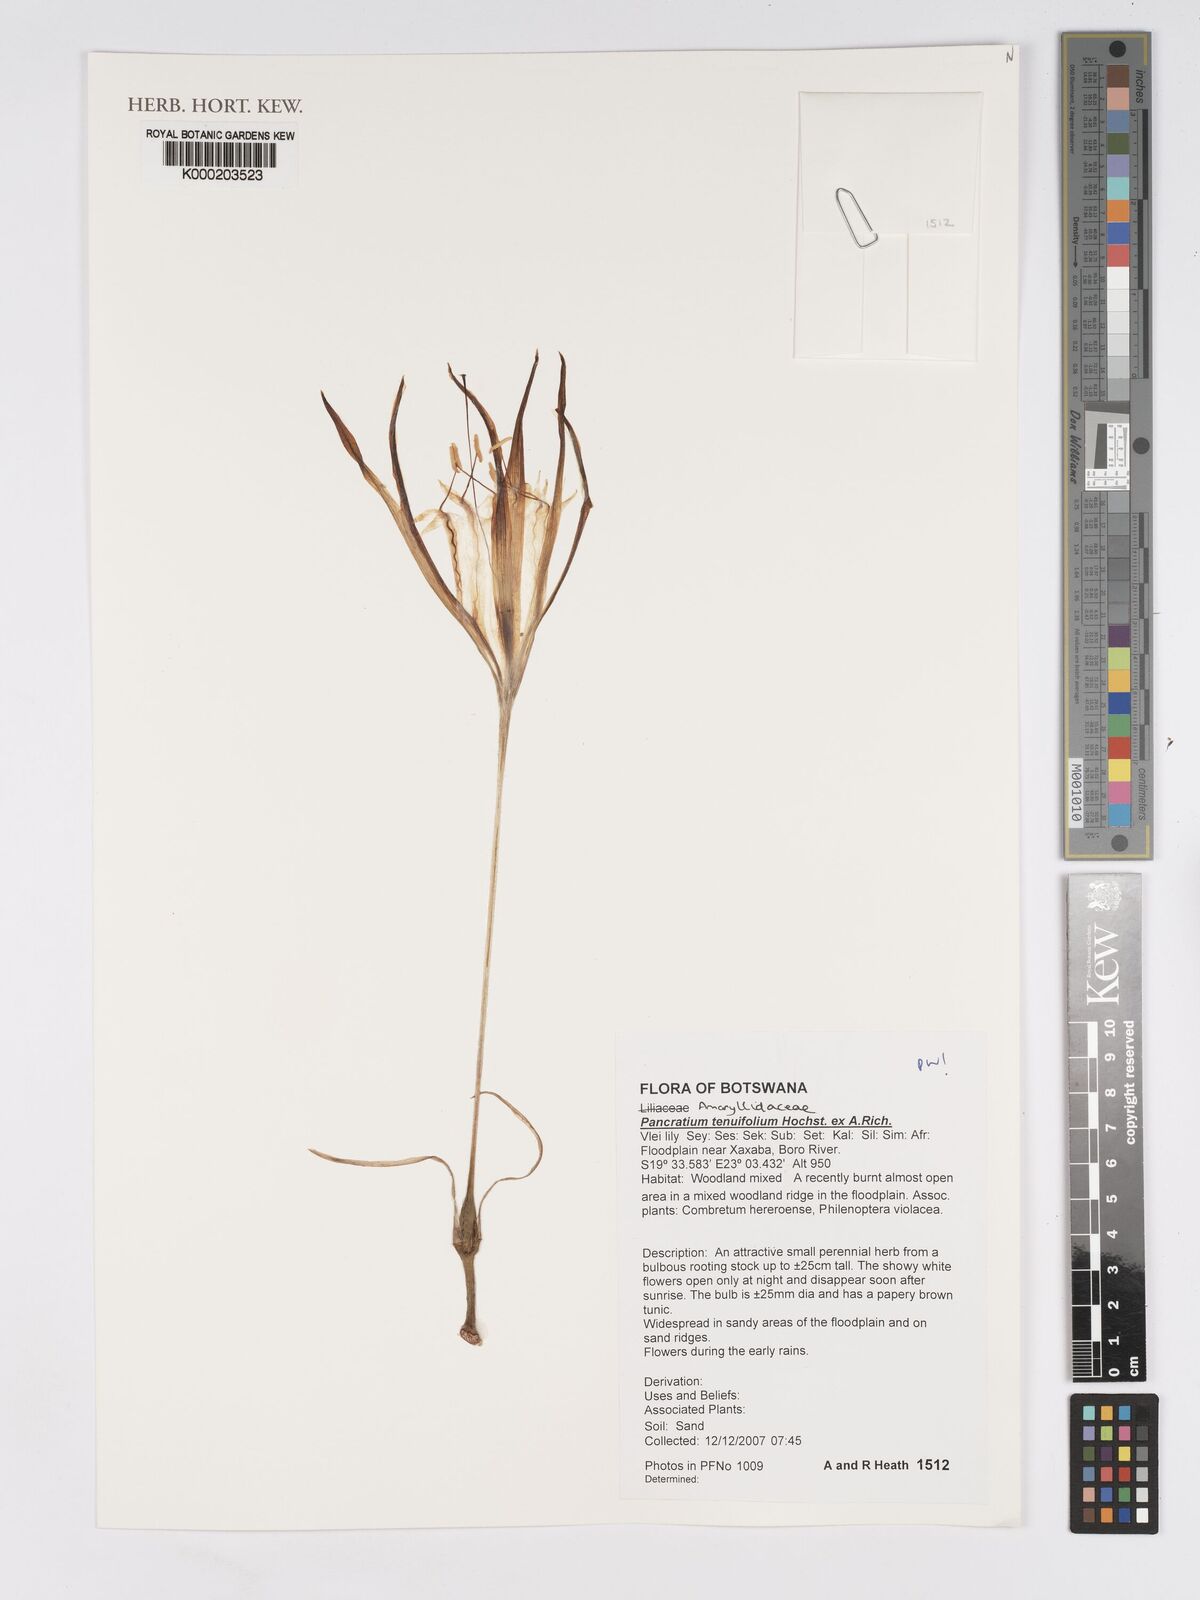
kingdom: Plantae
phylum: Tracheophyta
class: Liliopsida
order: Asparagales
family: Amaryllidaceae
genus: Pancratium
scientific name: Pancratium tenuifolium
